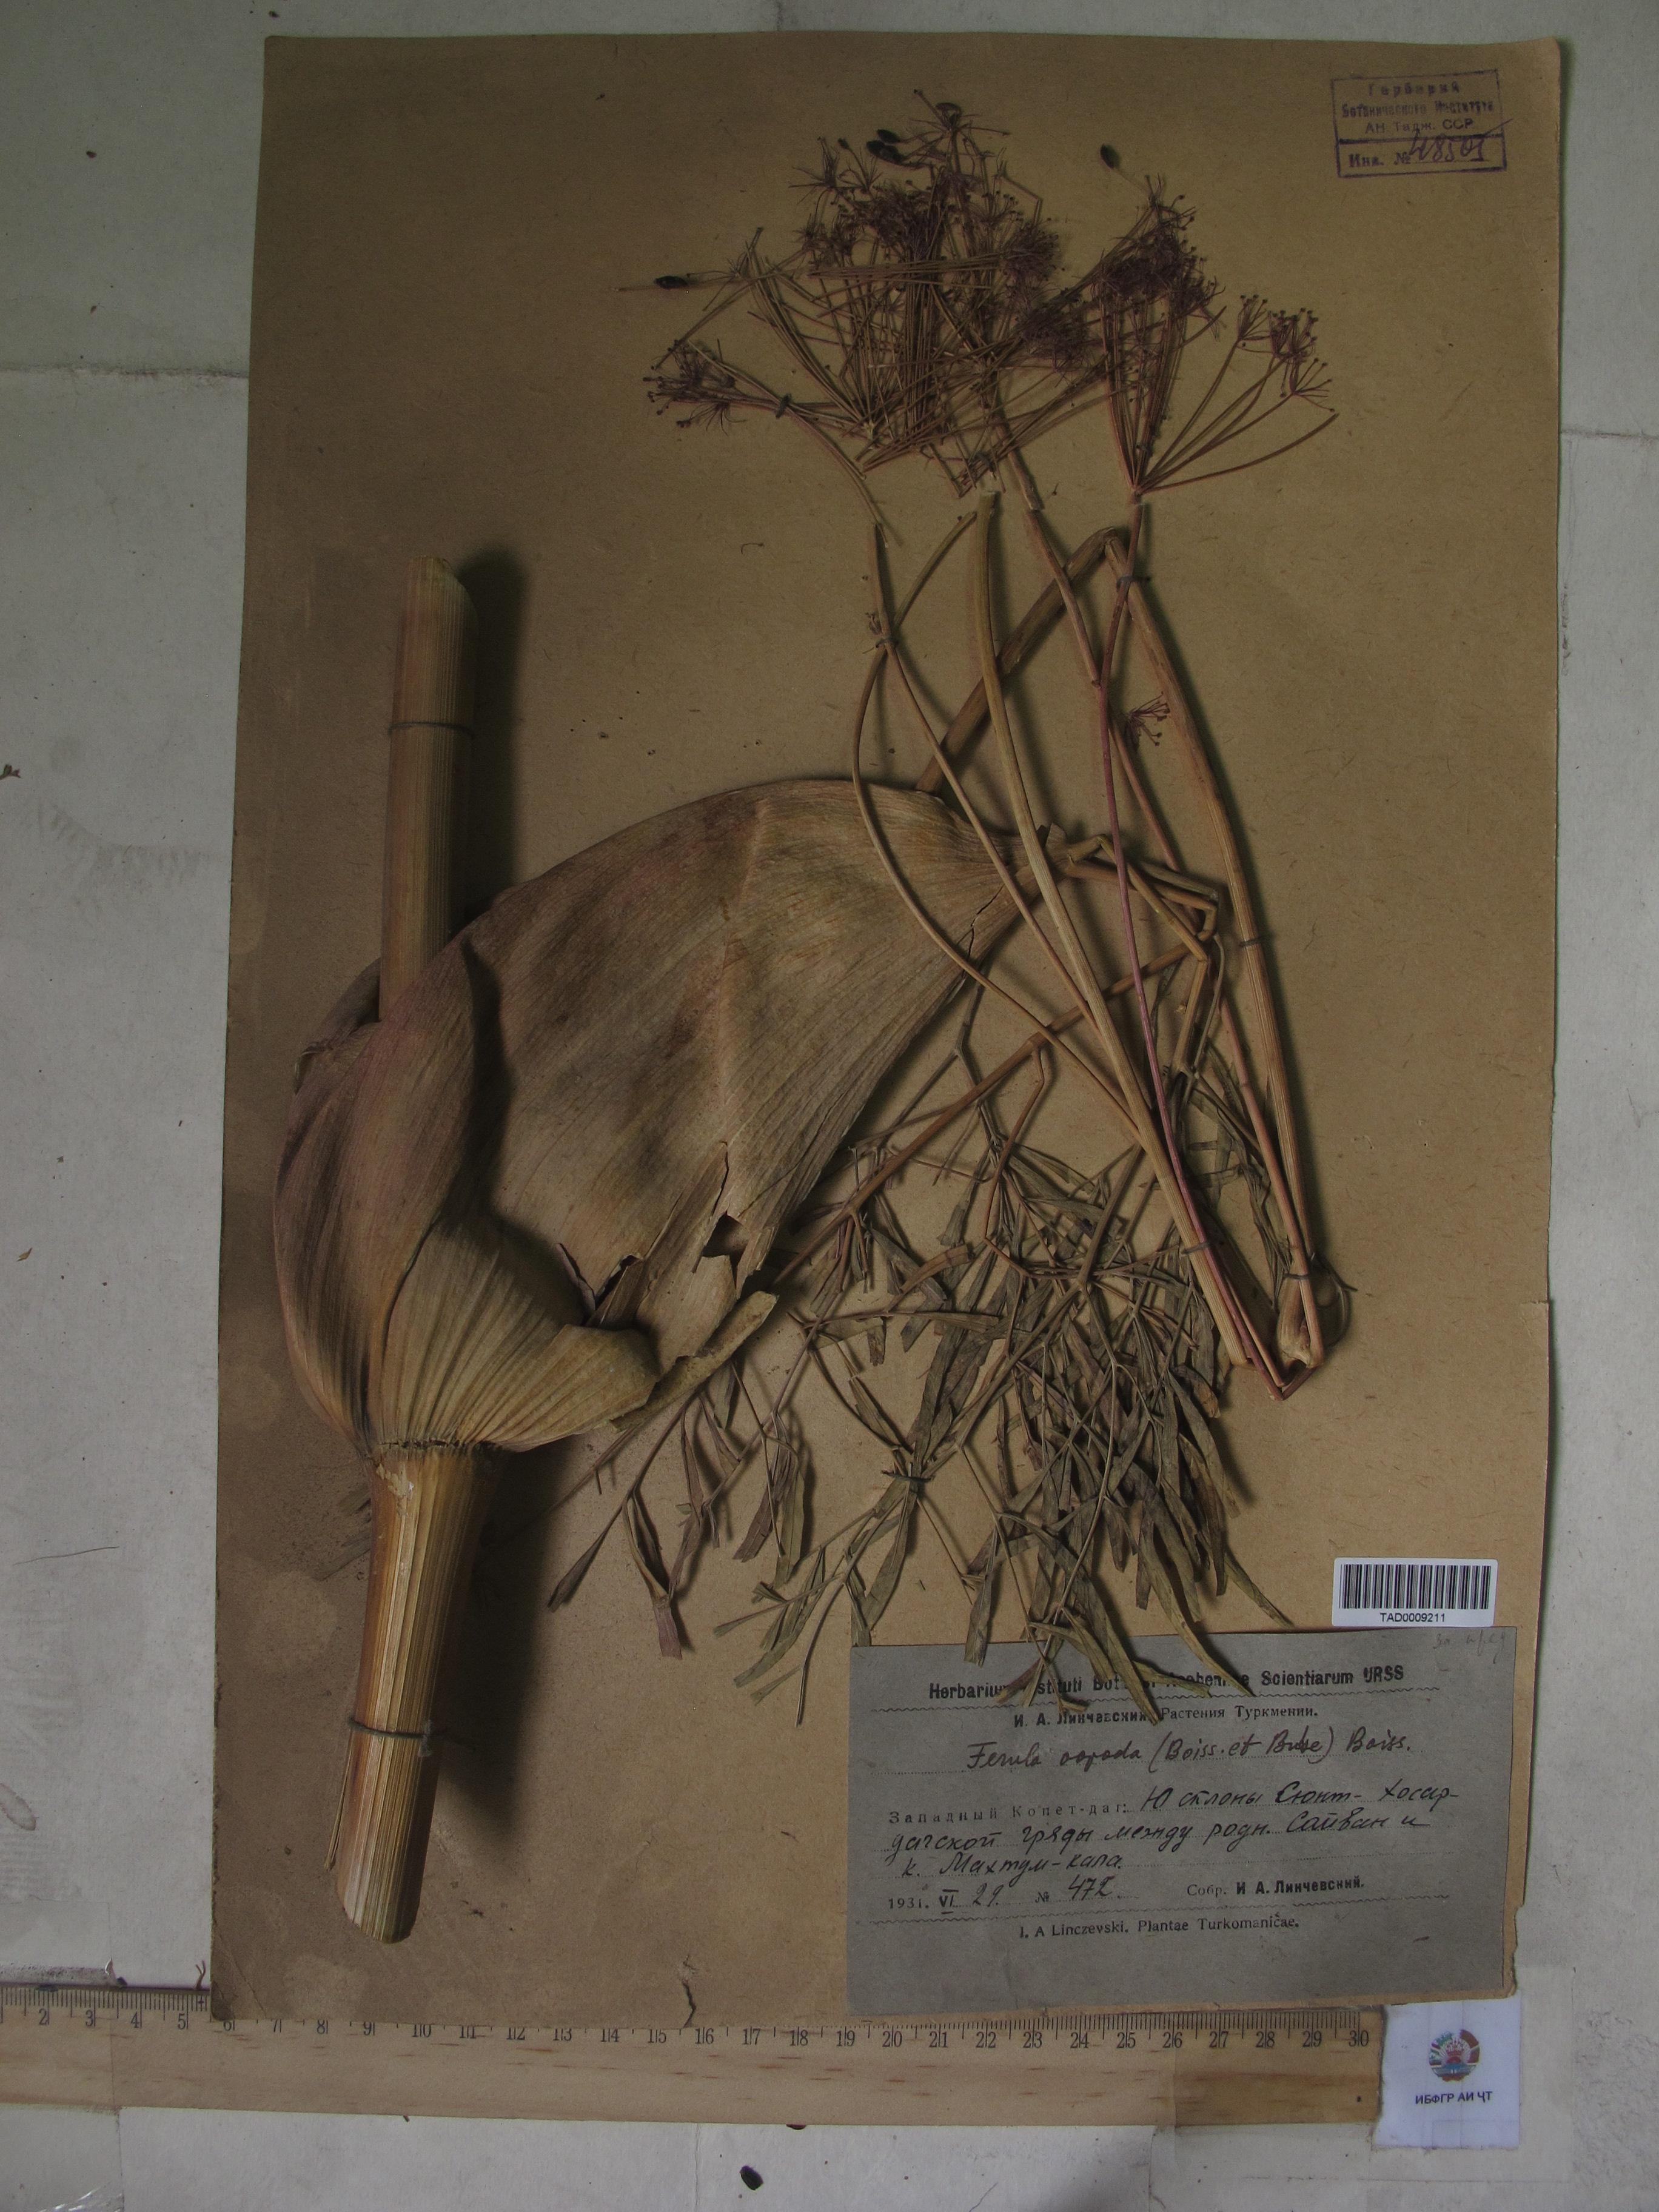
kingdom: Plantae
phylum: Tracheophyta
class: Magnoliopsida
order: Apiales
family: Apiaceae
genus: Ferula
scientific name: Ferula ovina
